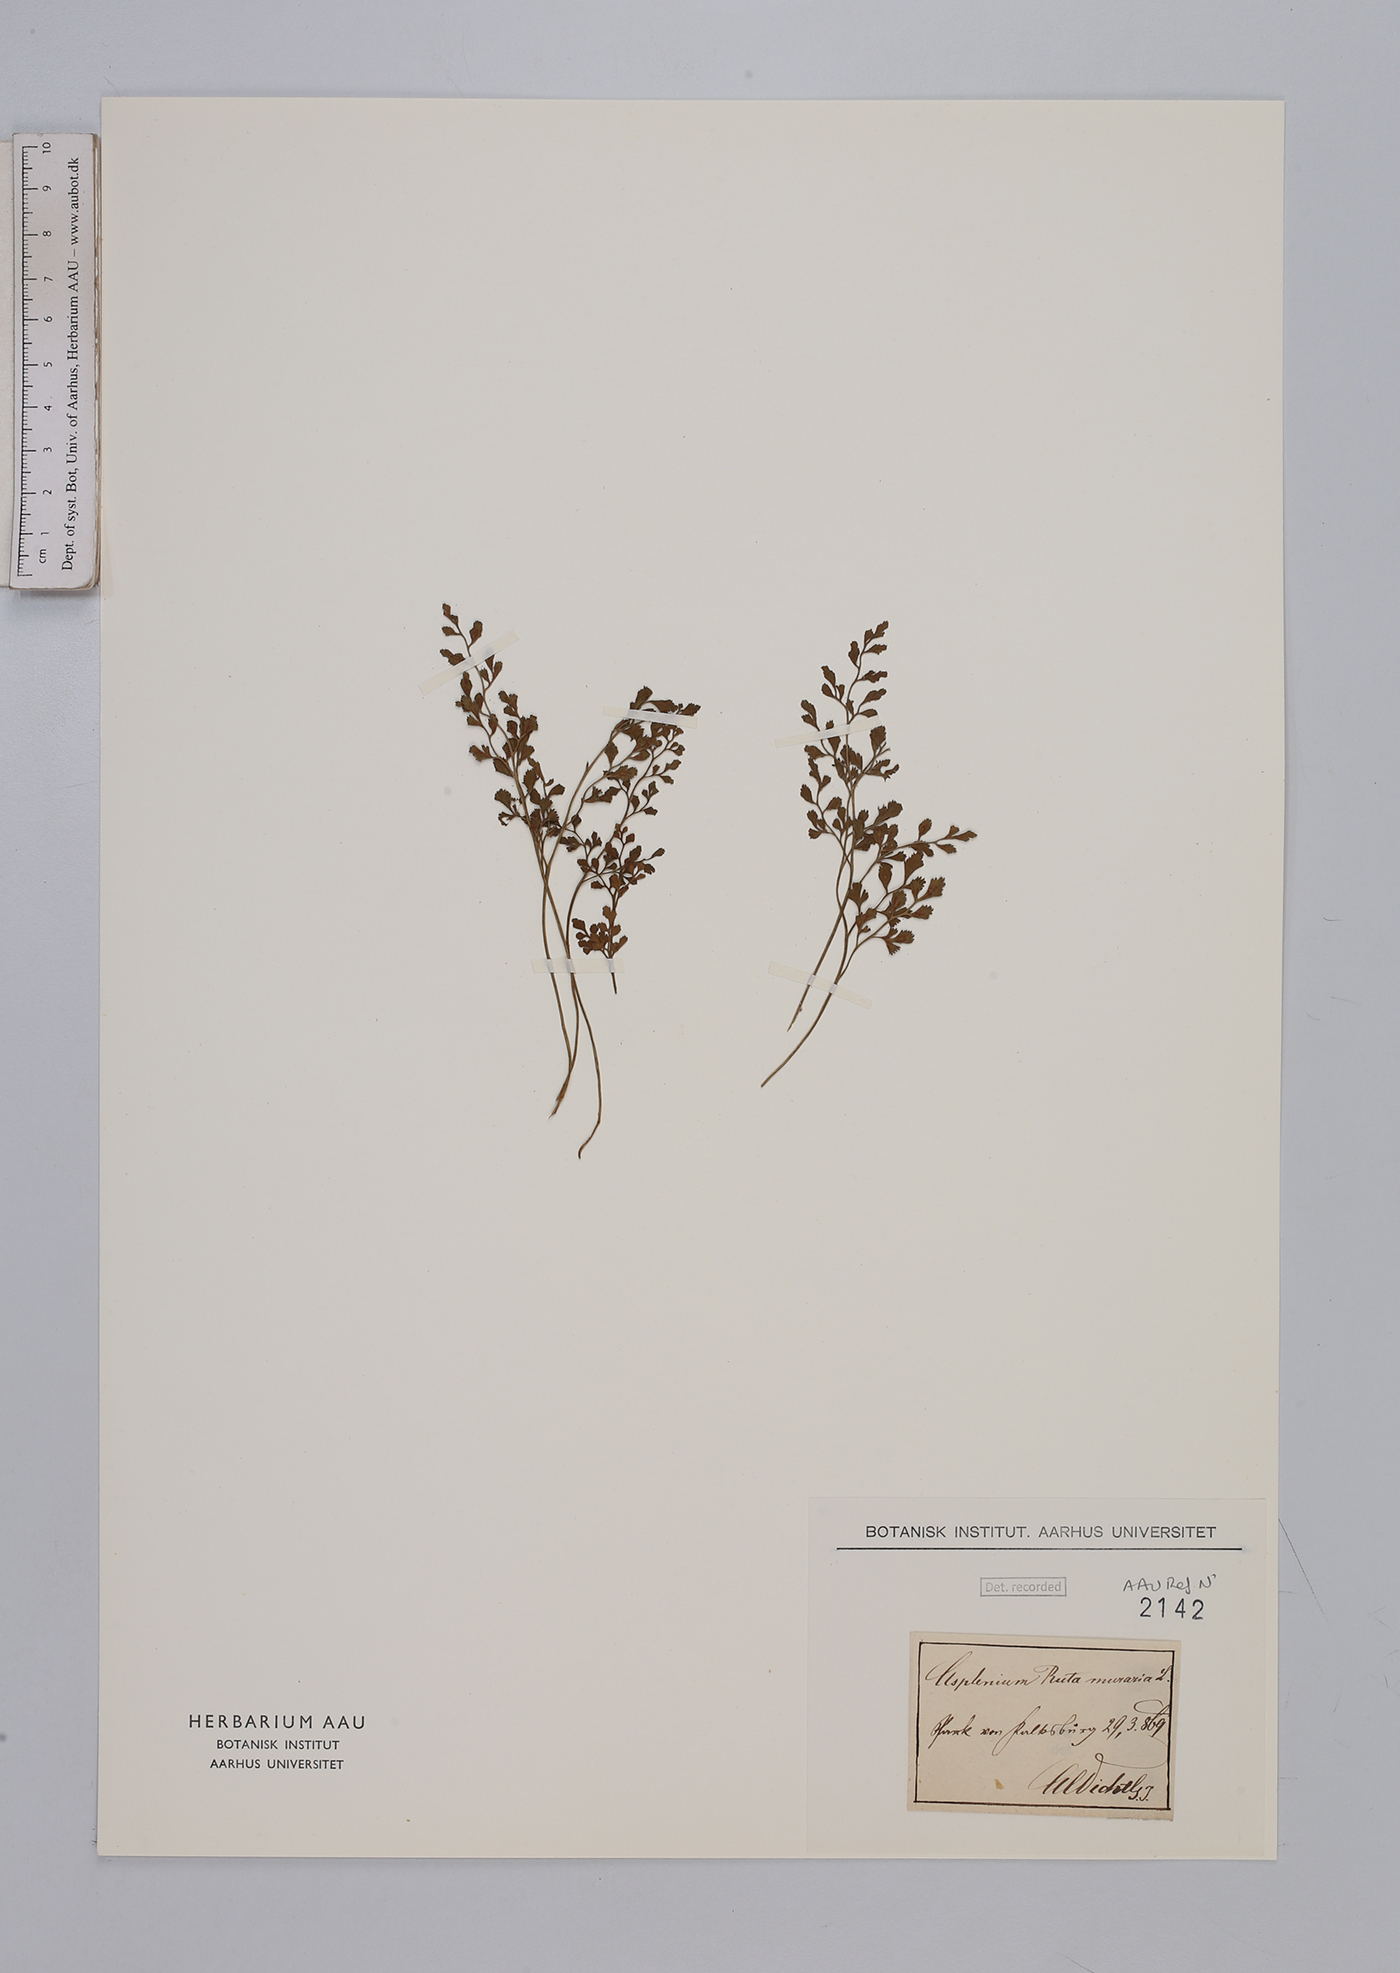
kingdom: Plantae
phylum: Tracheophyta
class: Polypodiopsida
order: Polypodiales
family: Aspleniaceae
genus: Asplenium
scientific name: Asplenium ruta-muraria
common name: Wall-rue
